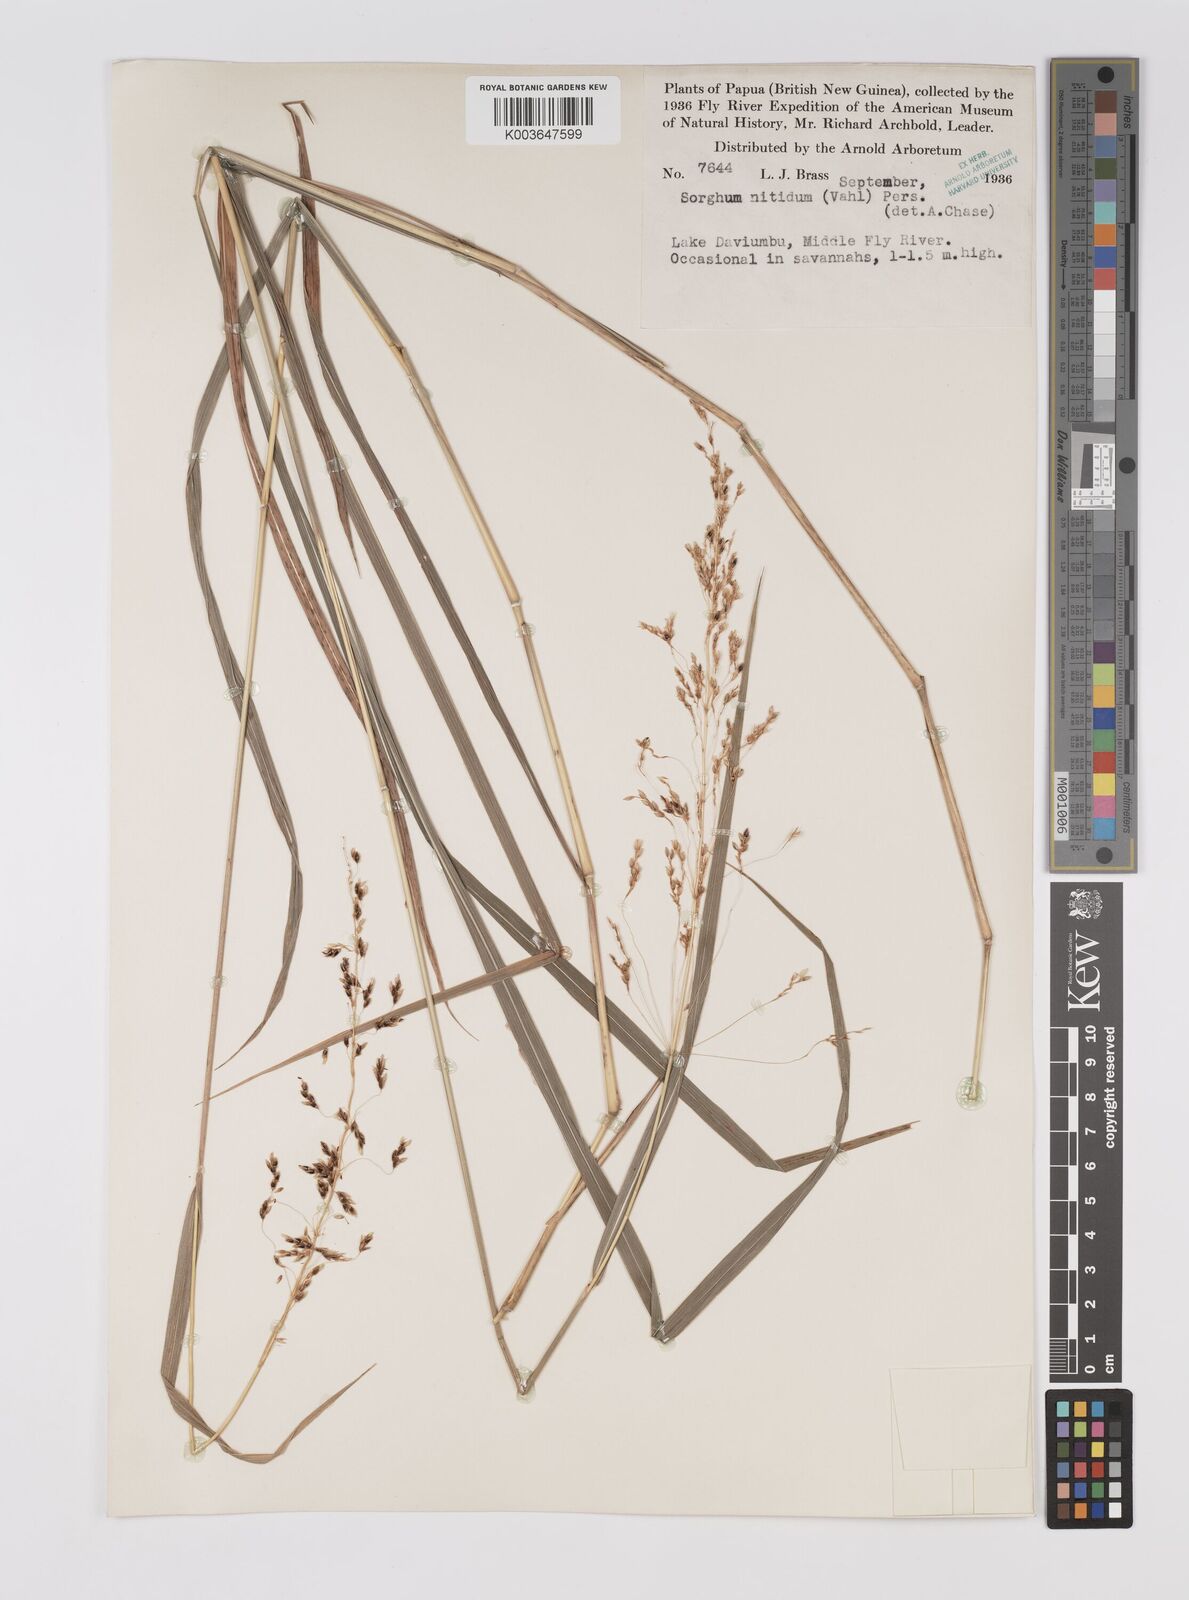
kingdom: Plantae
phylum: Tracheophyta
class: Liliopsida
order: Poales
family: Poaceae
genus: Sorghum
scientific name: Sorghum nitidum
